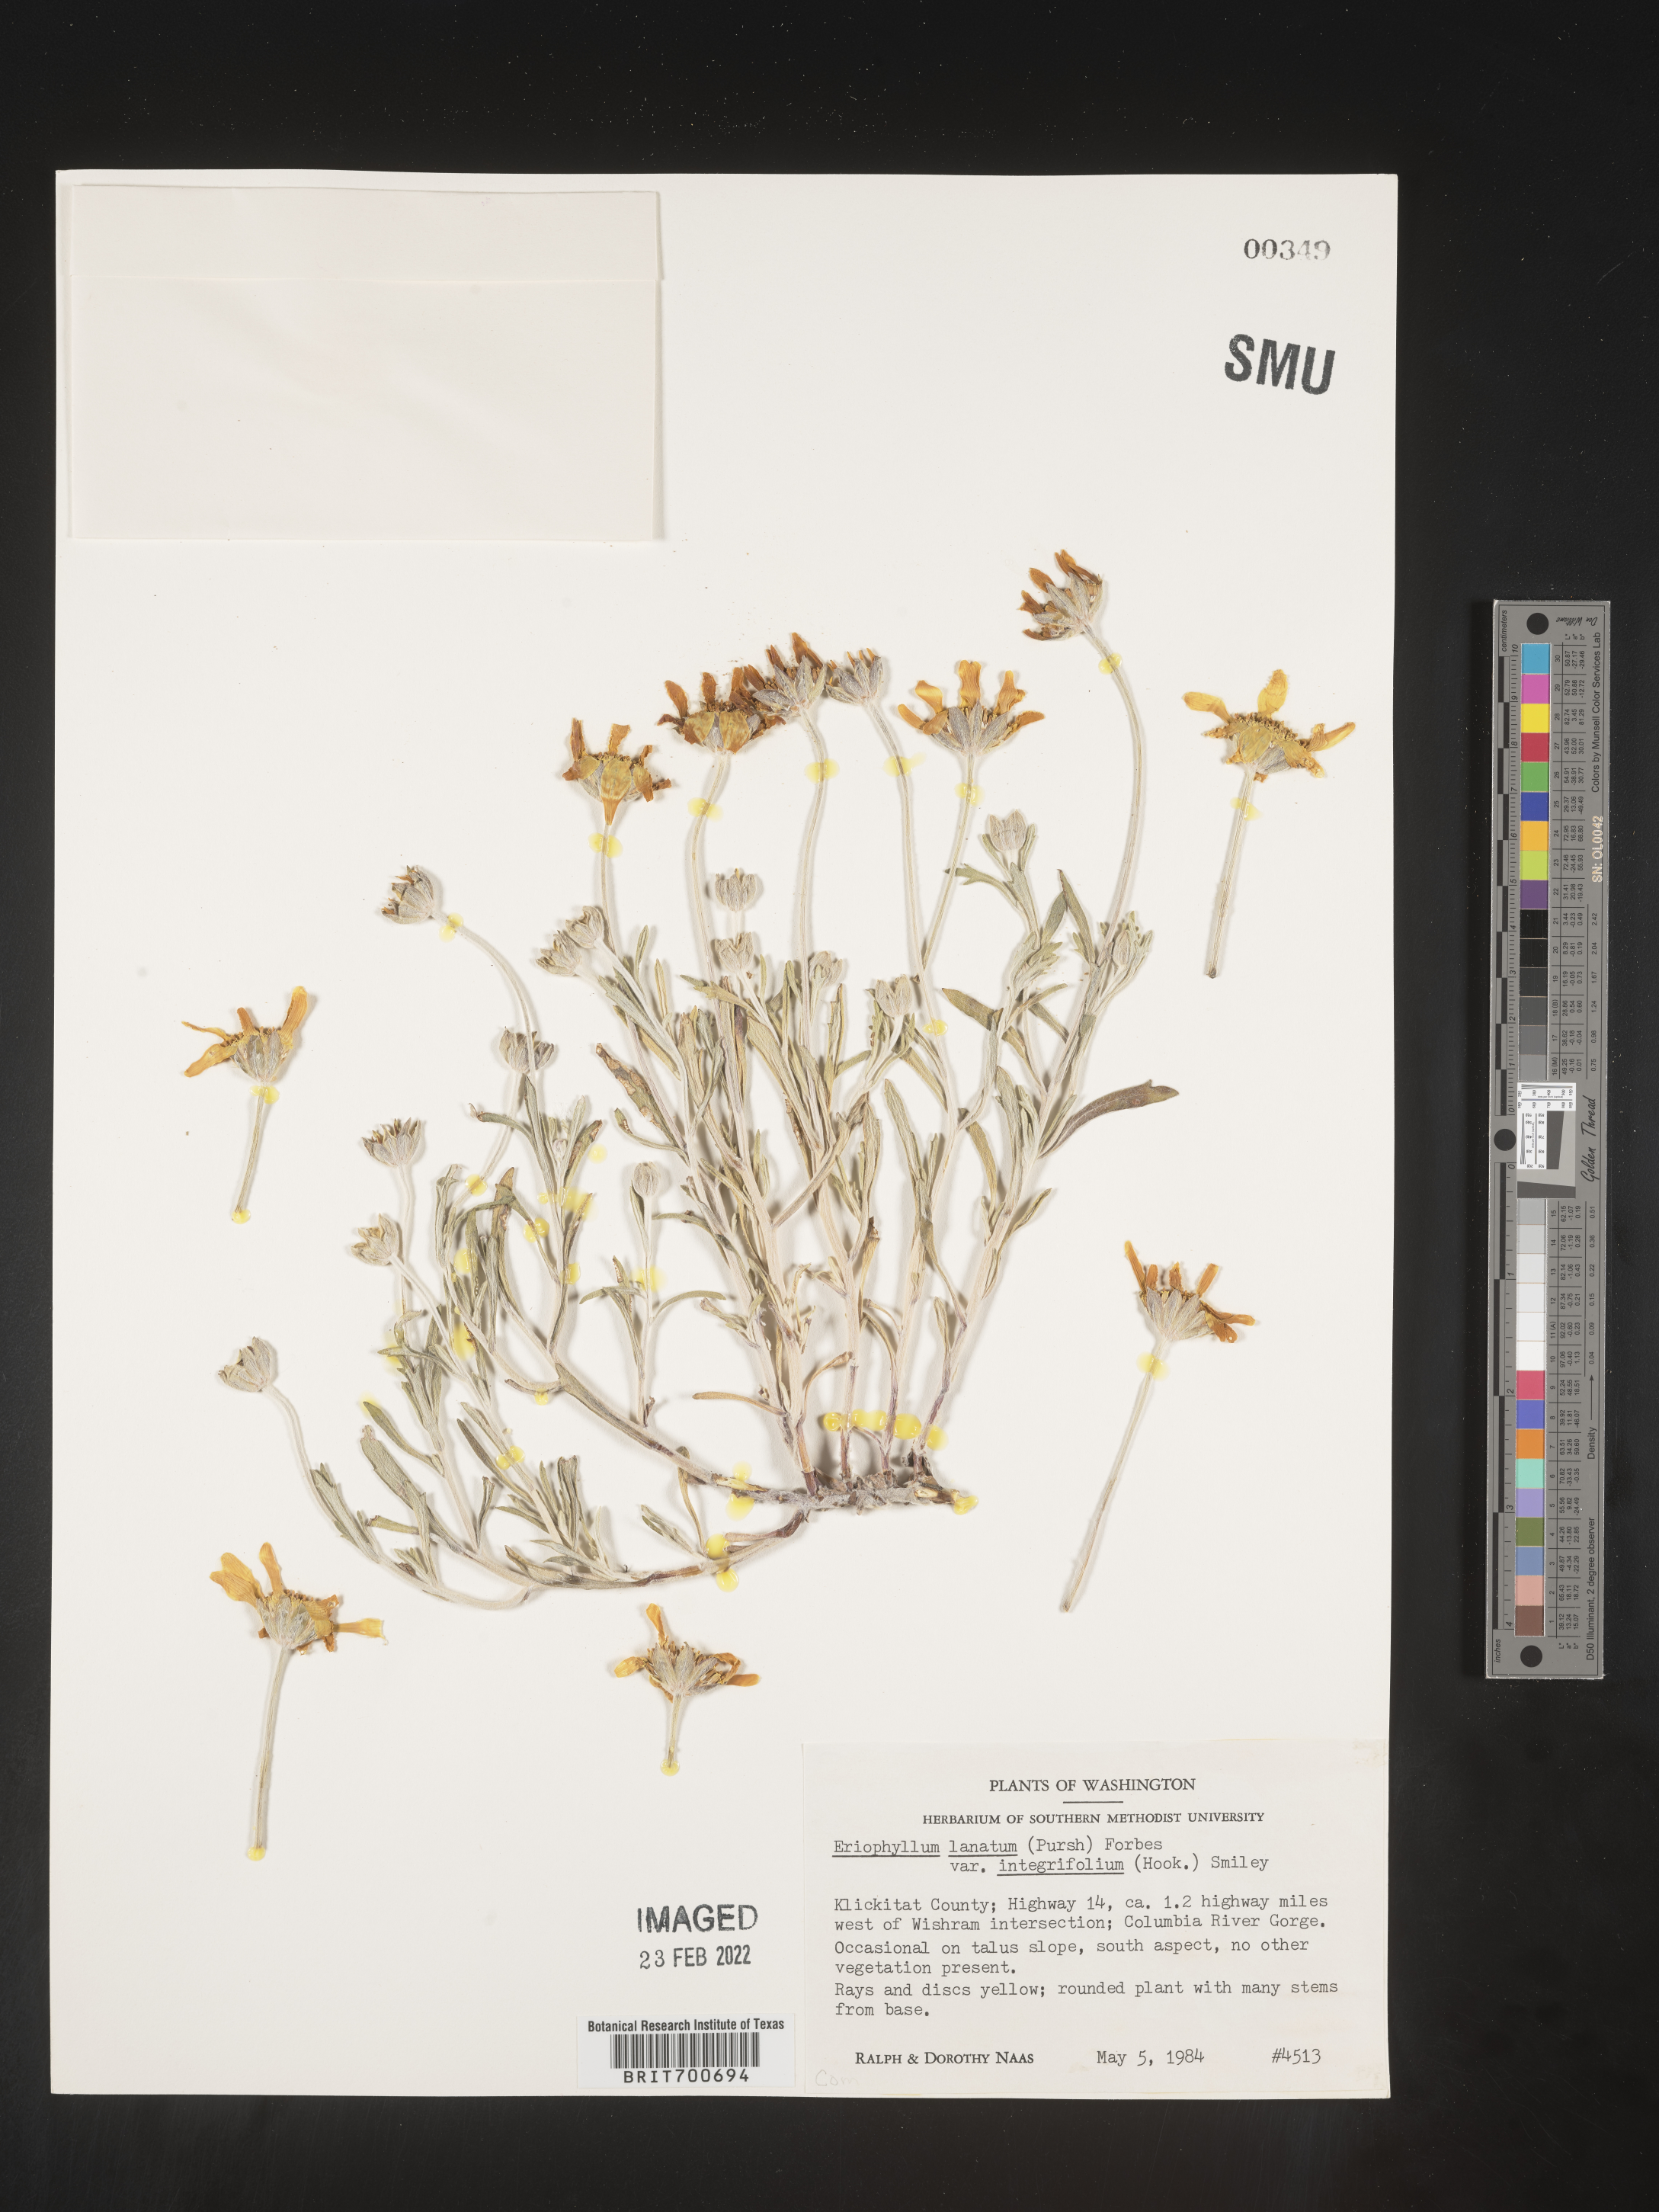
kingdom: Plantae
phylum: Tracheophyta
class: Magnoliopsida
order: Asterales
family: Asteraceae
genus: Eriophyllum
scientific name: Eriophyllum lanatum
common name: Common woolly-sunflower
